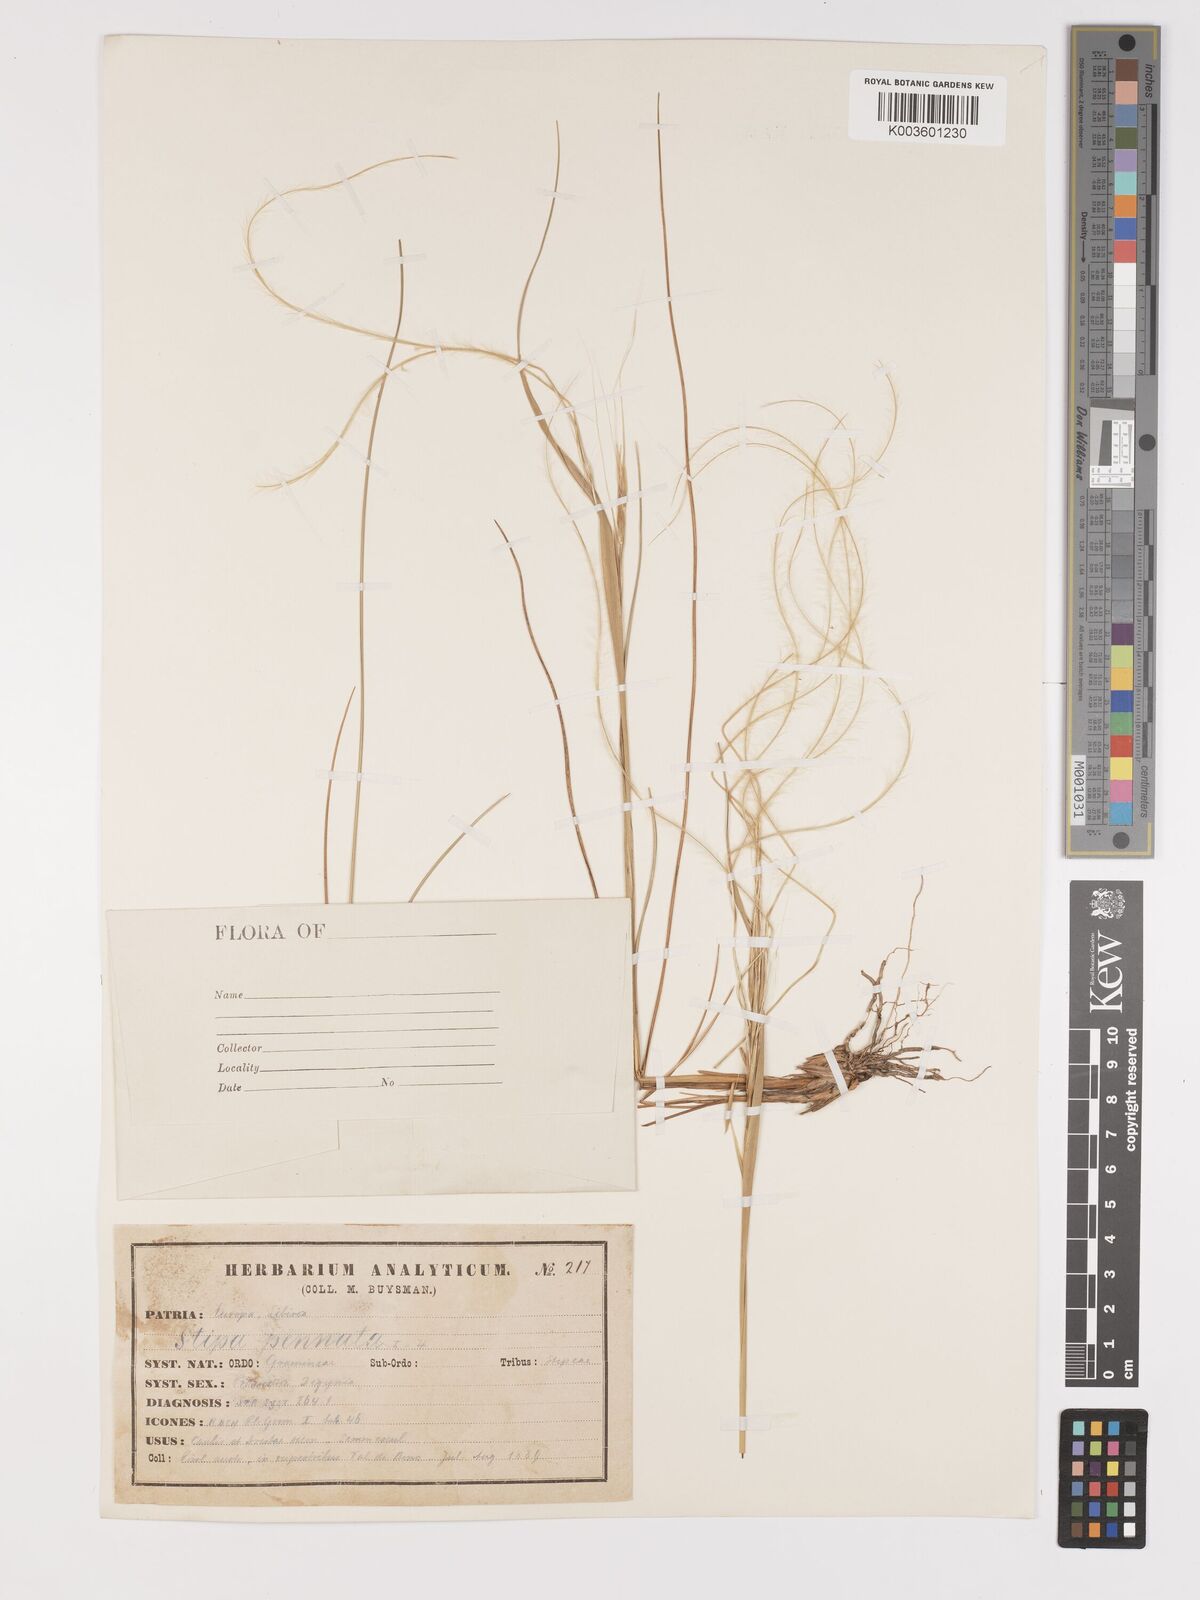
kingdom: Plantae
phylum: Tracheophyta
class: Liliopsida
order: Poales
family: Poaceae
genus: Stipa
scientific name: Stipa pennata
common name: European feather grass
